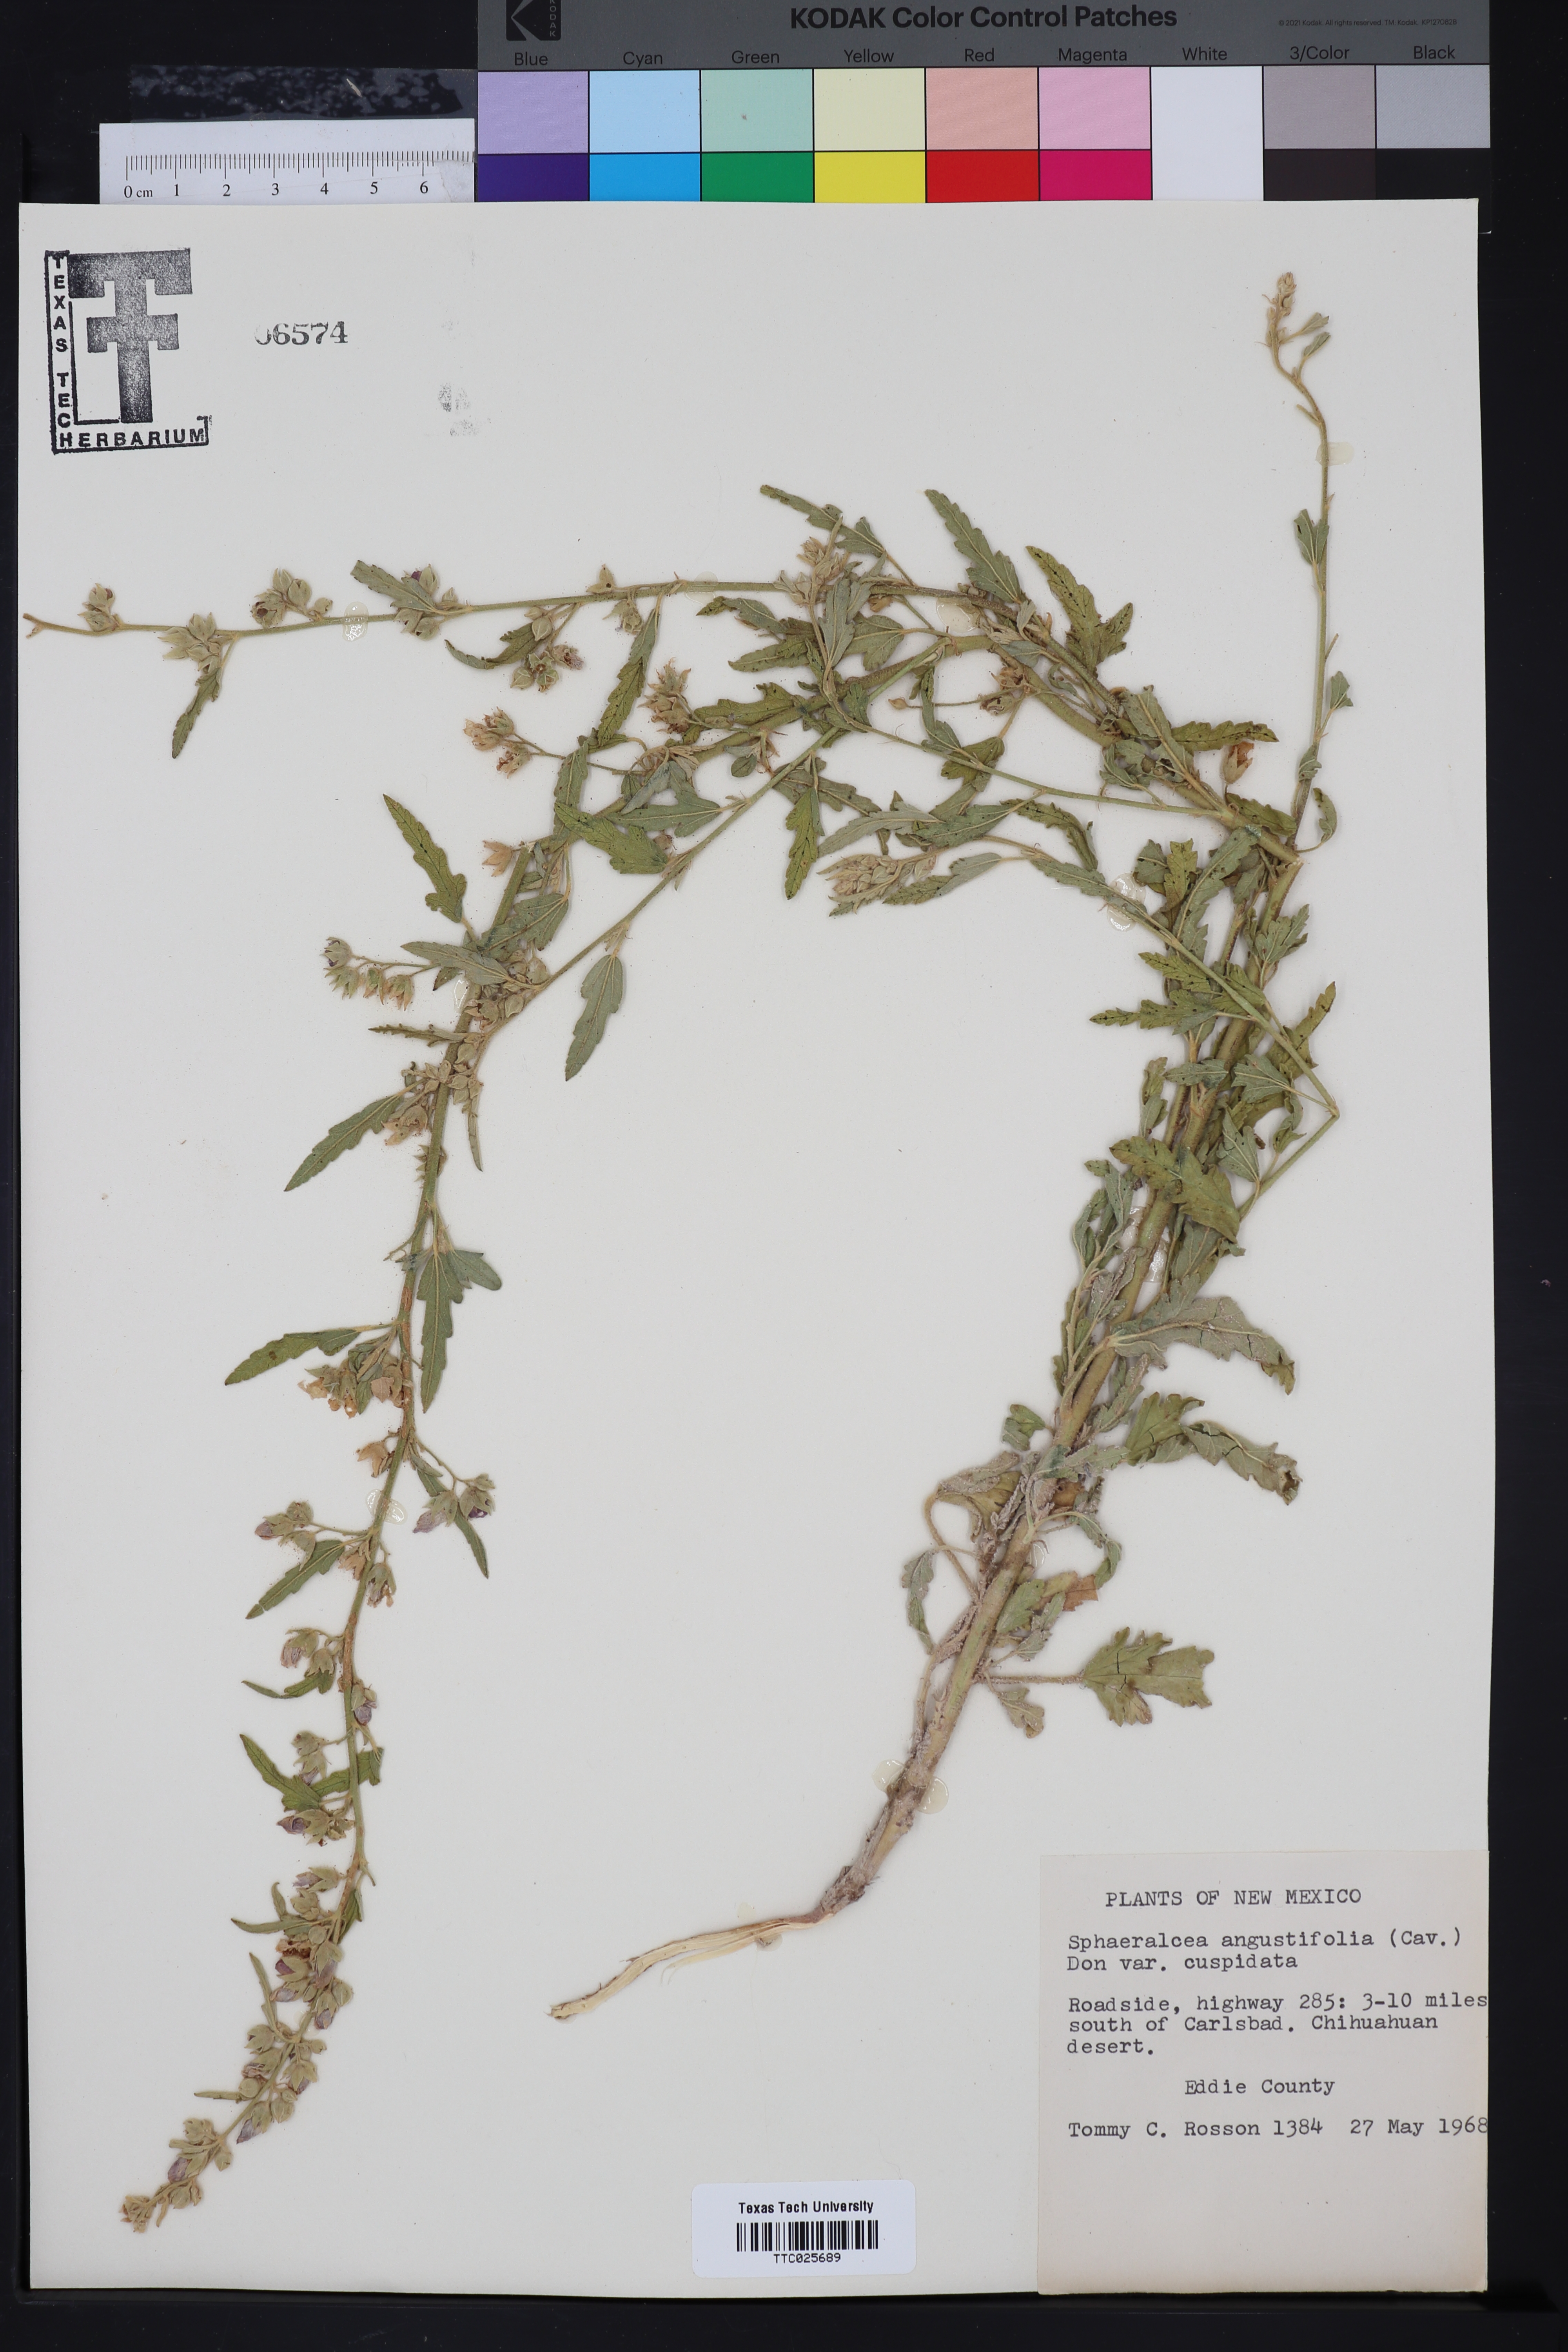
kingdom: Plantae
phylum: Tracheophyta
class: Magnoliopsida
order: Malvales
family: Malvaceae
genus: Sphaeralcea
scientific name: Sphaeralcea angustifolia
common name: Copper globe-mallow
